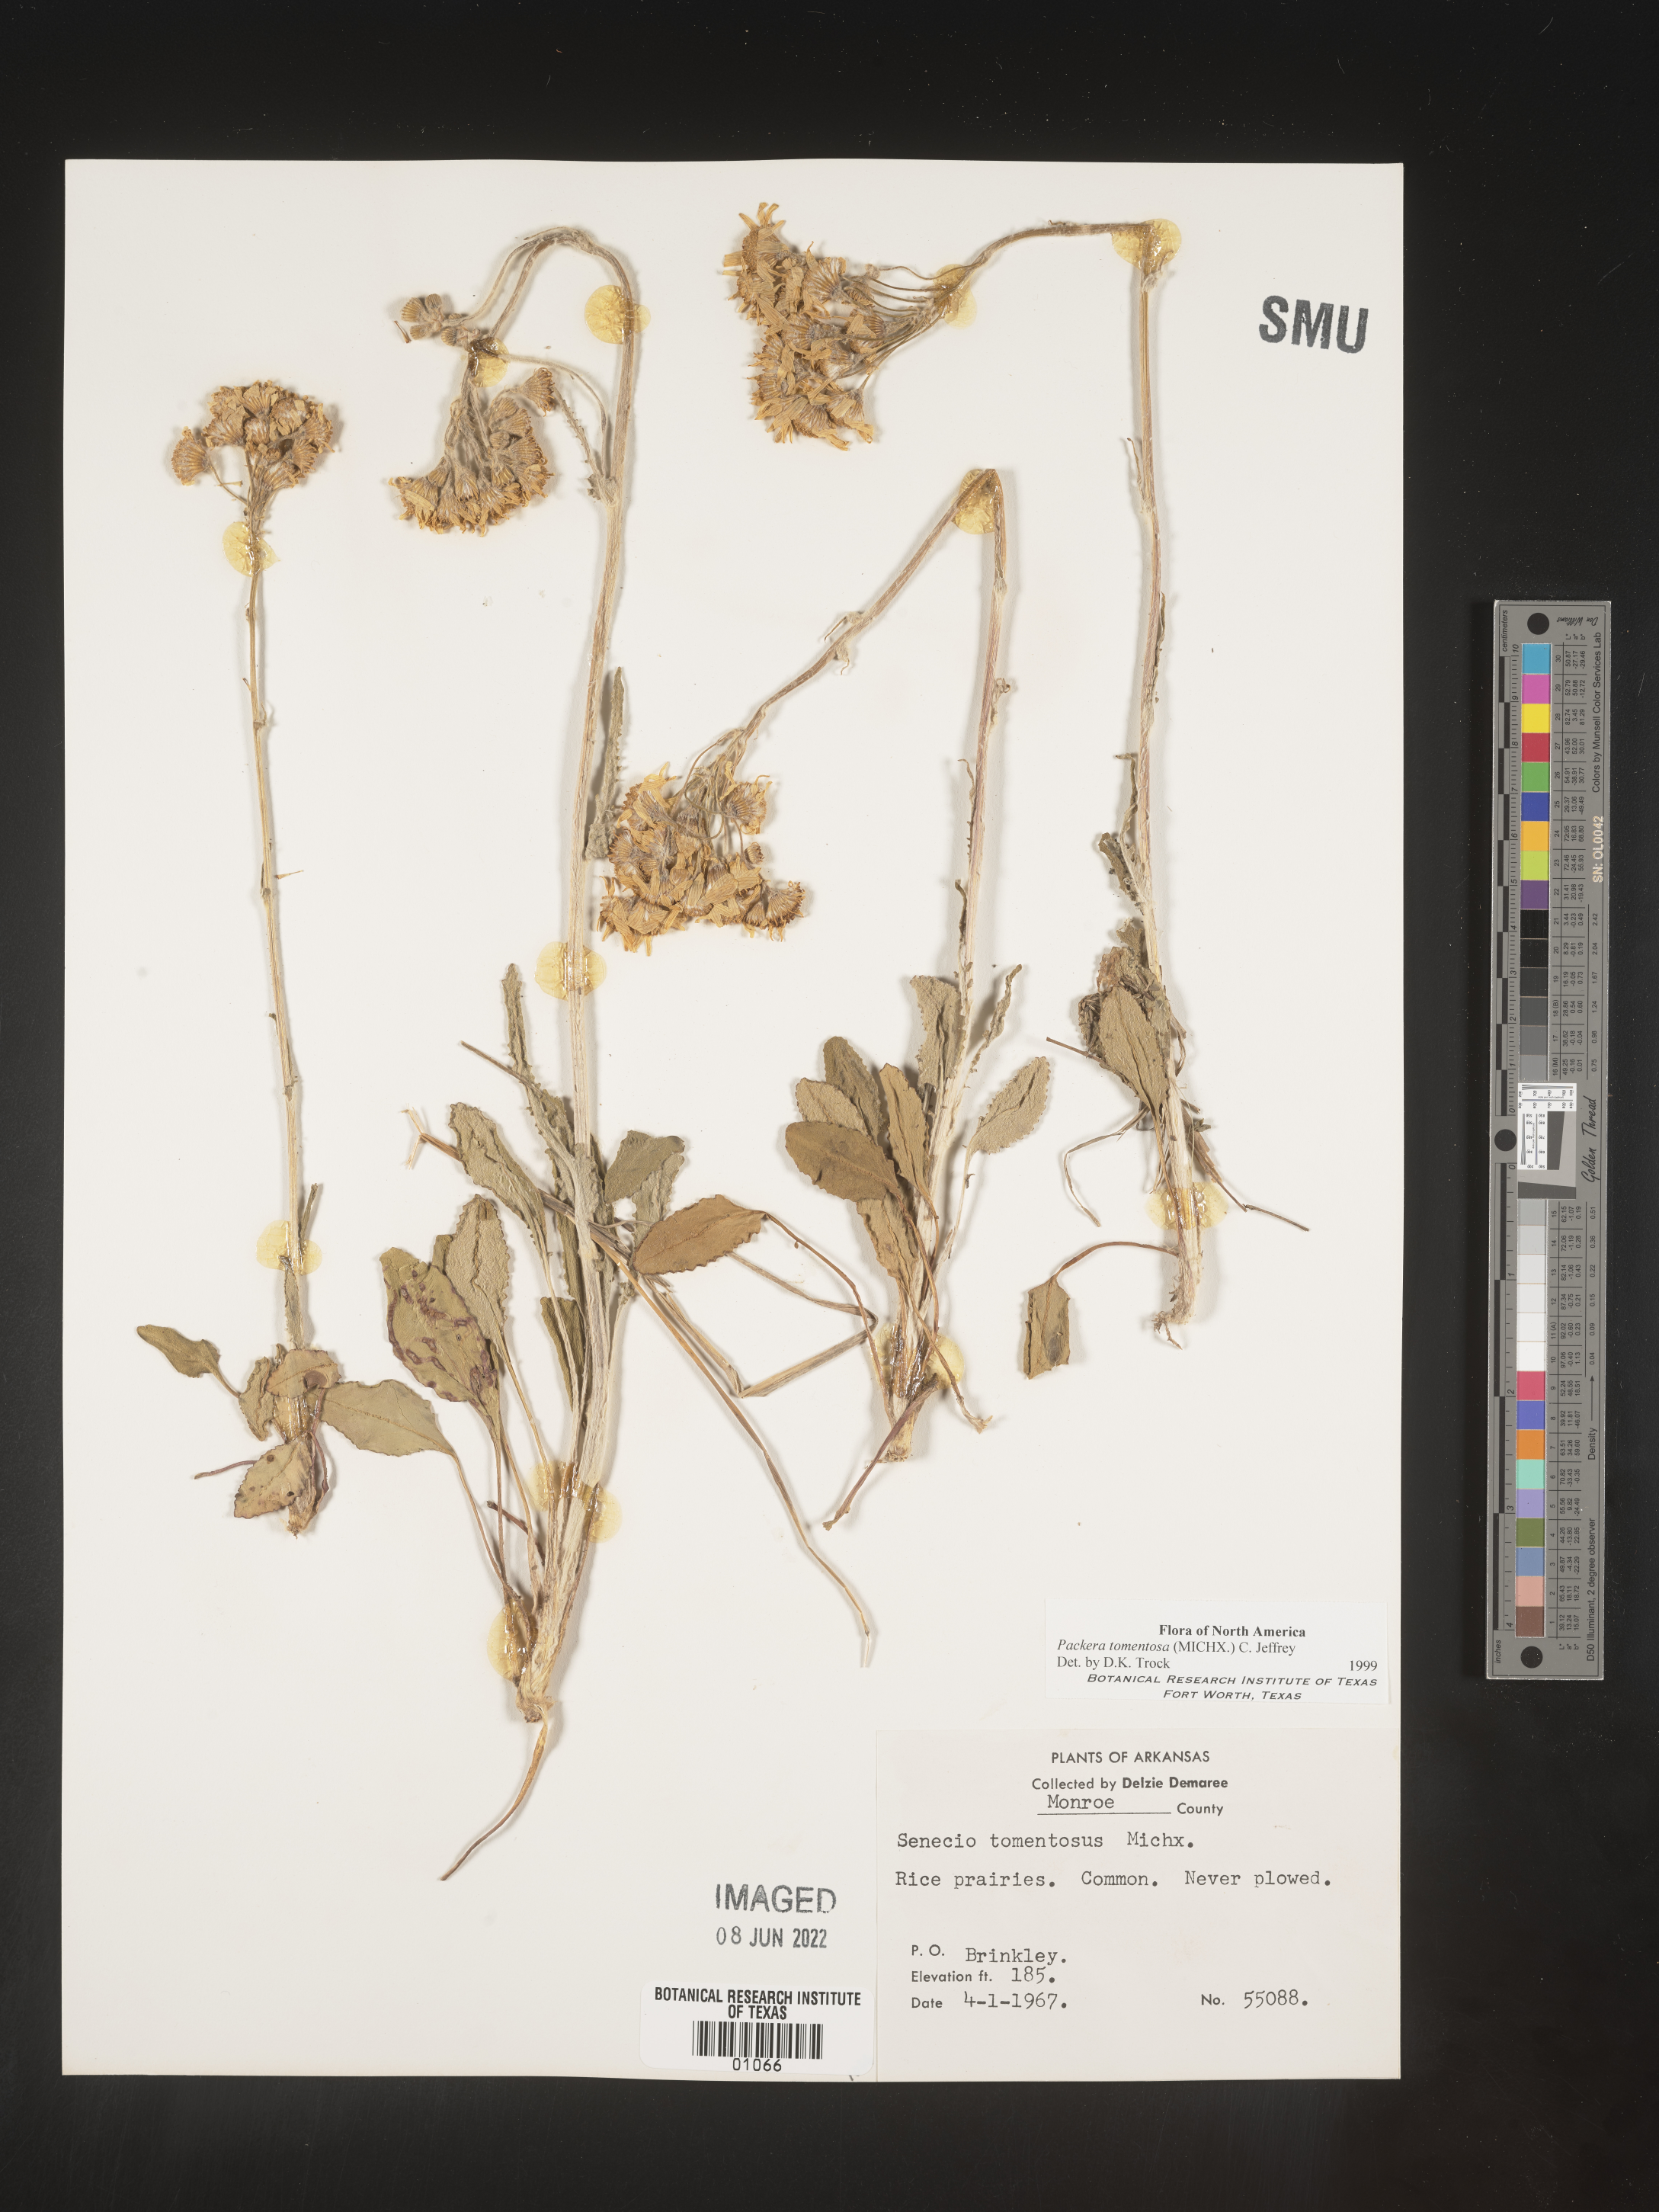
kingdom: Plantae
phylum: Tracheophyta
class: Magnoliopsida
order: Asterales
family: Asteraceae
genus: Packera
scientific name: Packera dubia
